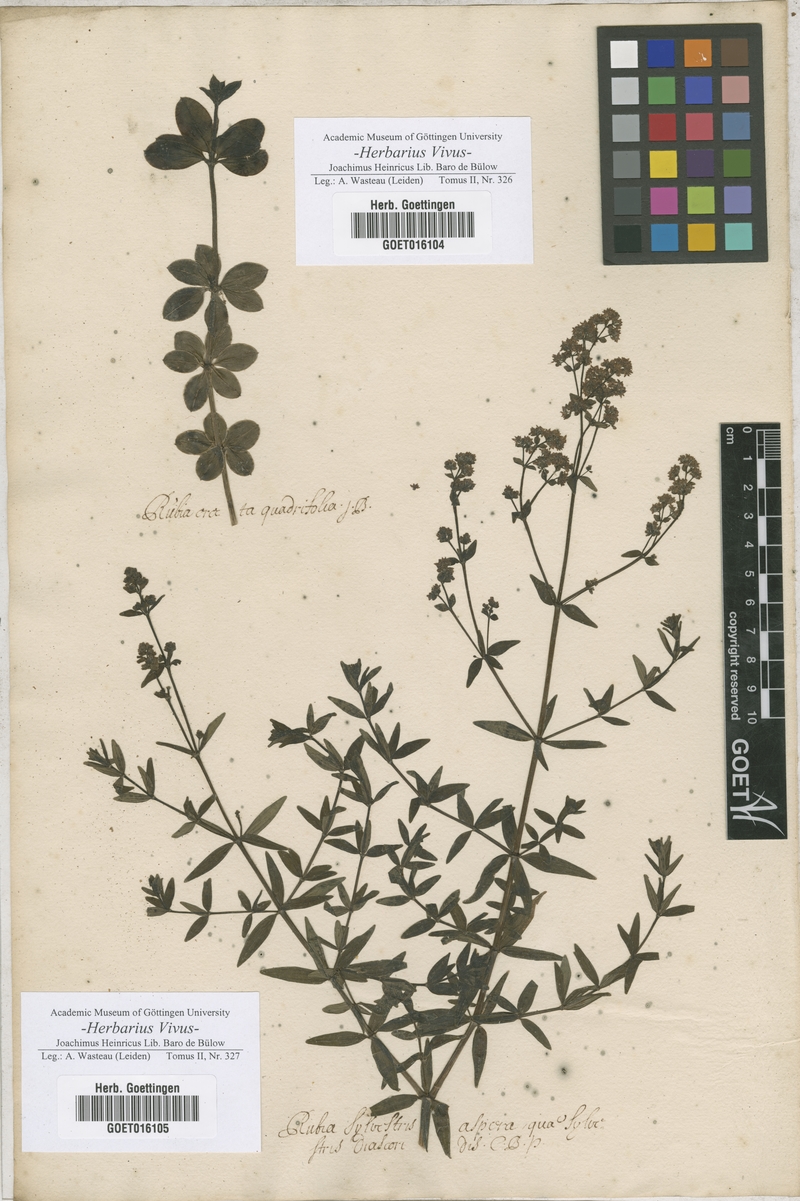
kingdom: Plantae
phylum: Tracheophyta
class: Magnoliopsida
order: Gentianales
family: Rubiaceae
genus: Rubia
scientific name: Rubia
